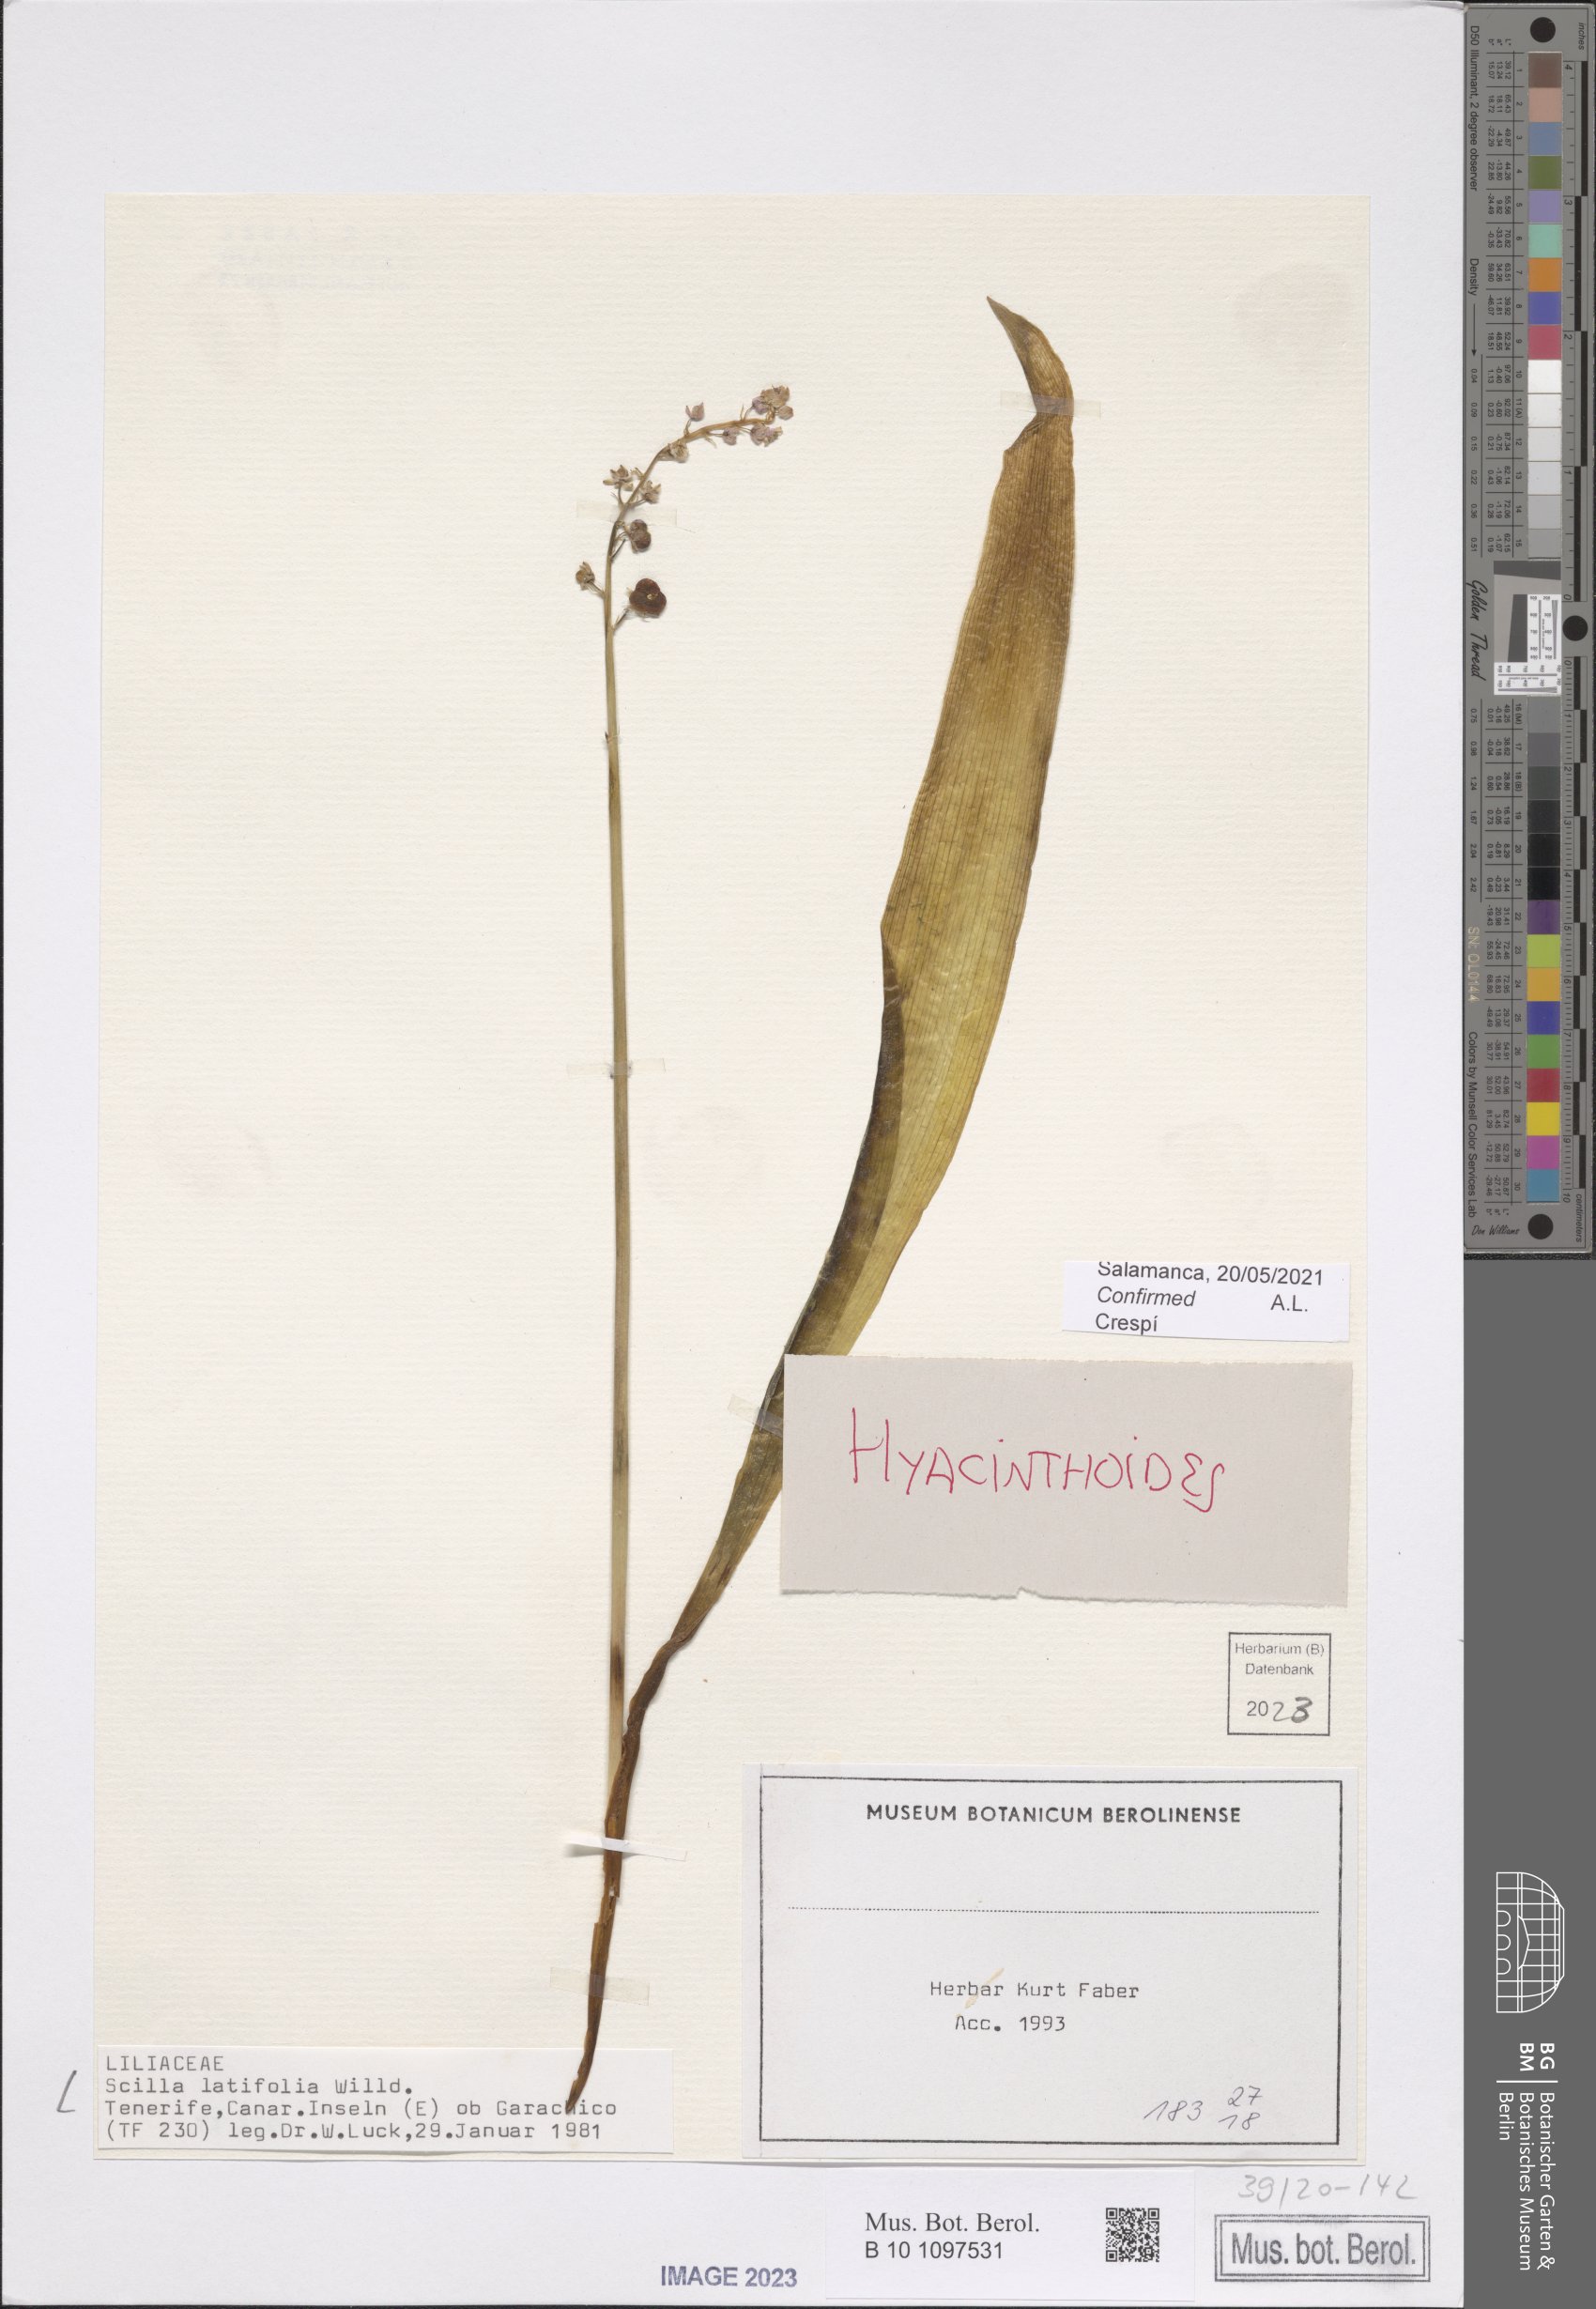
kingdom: Plantae
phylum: Tracheophyta
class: Liliopsida
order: Asparagales
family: Asparagaceae
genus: Scilla
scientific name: Scilla latifolia
